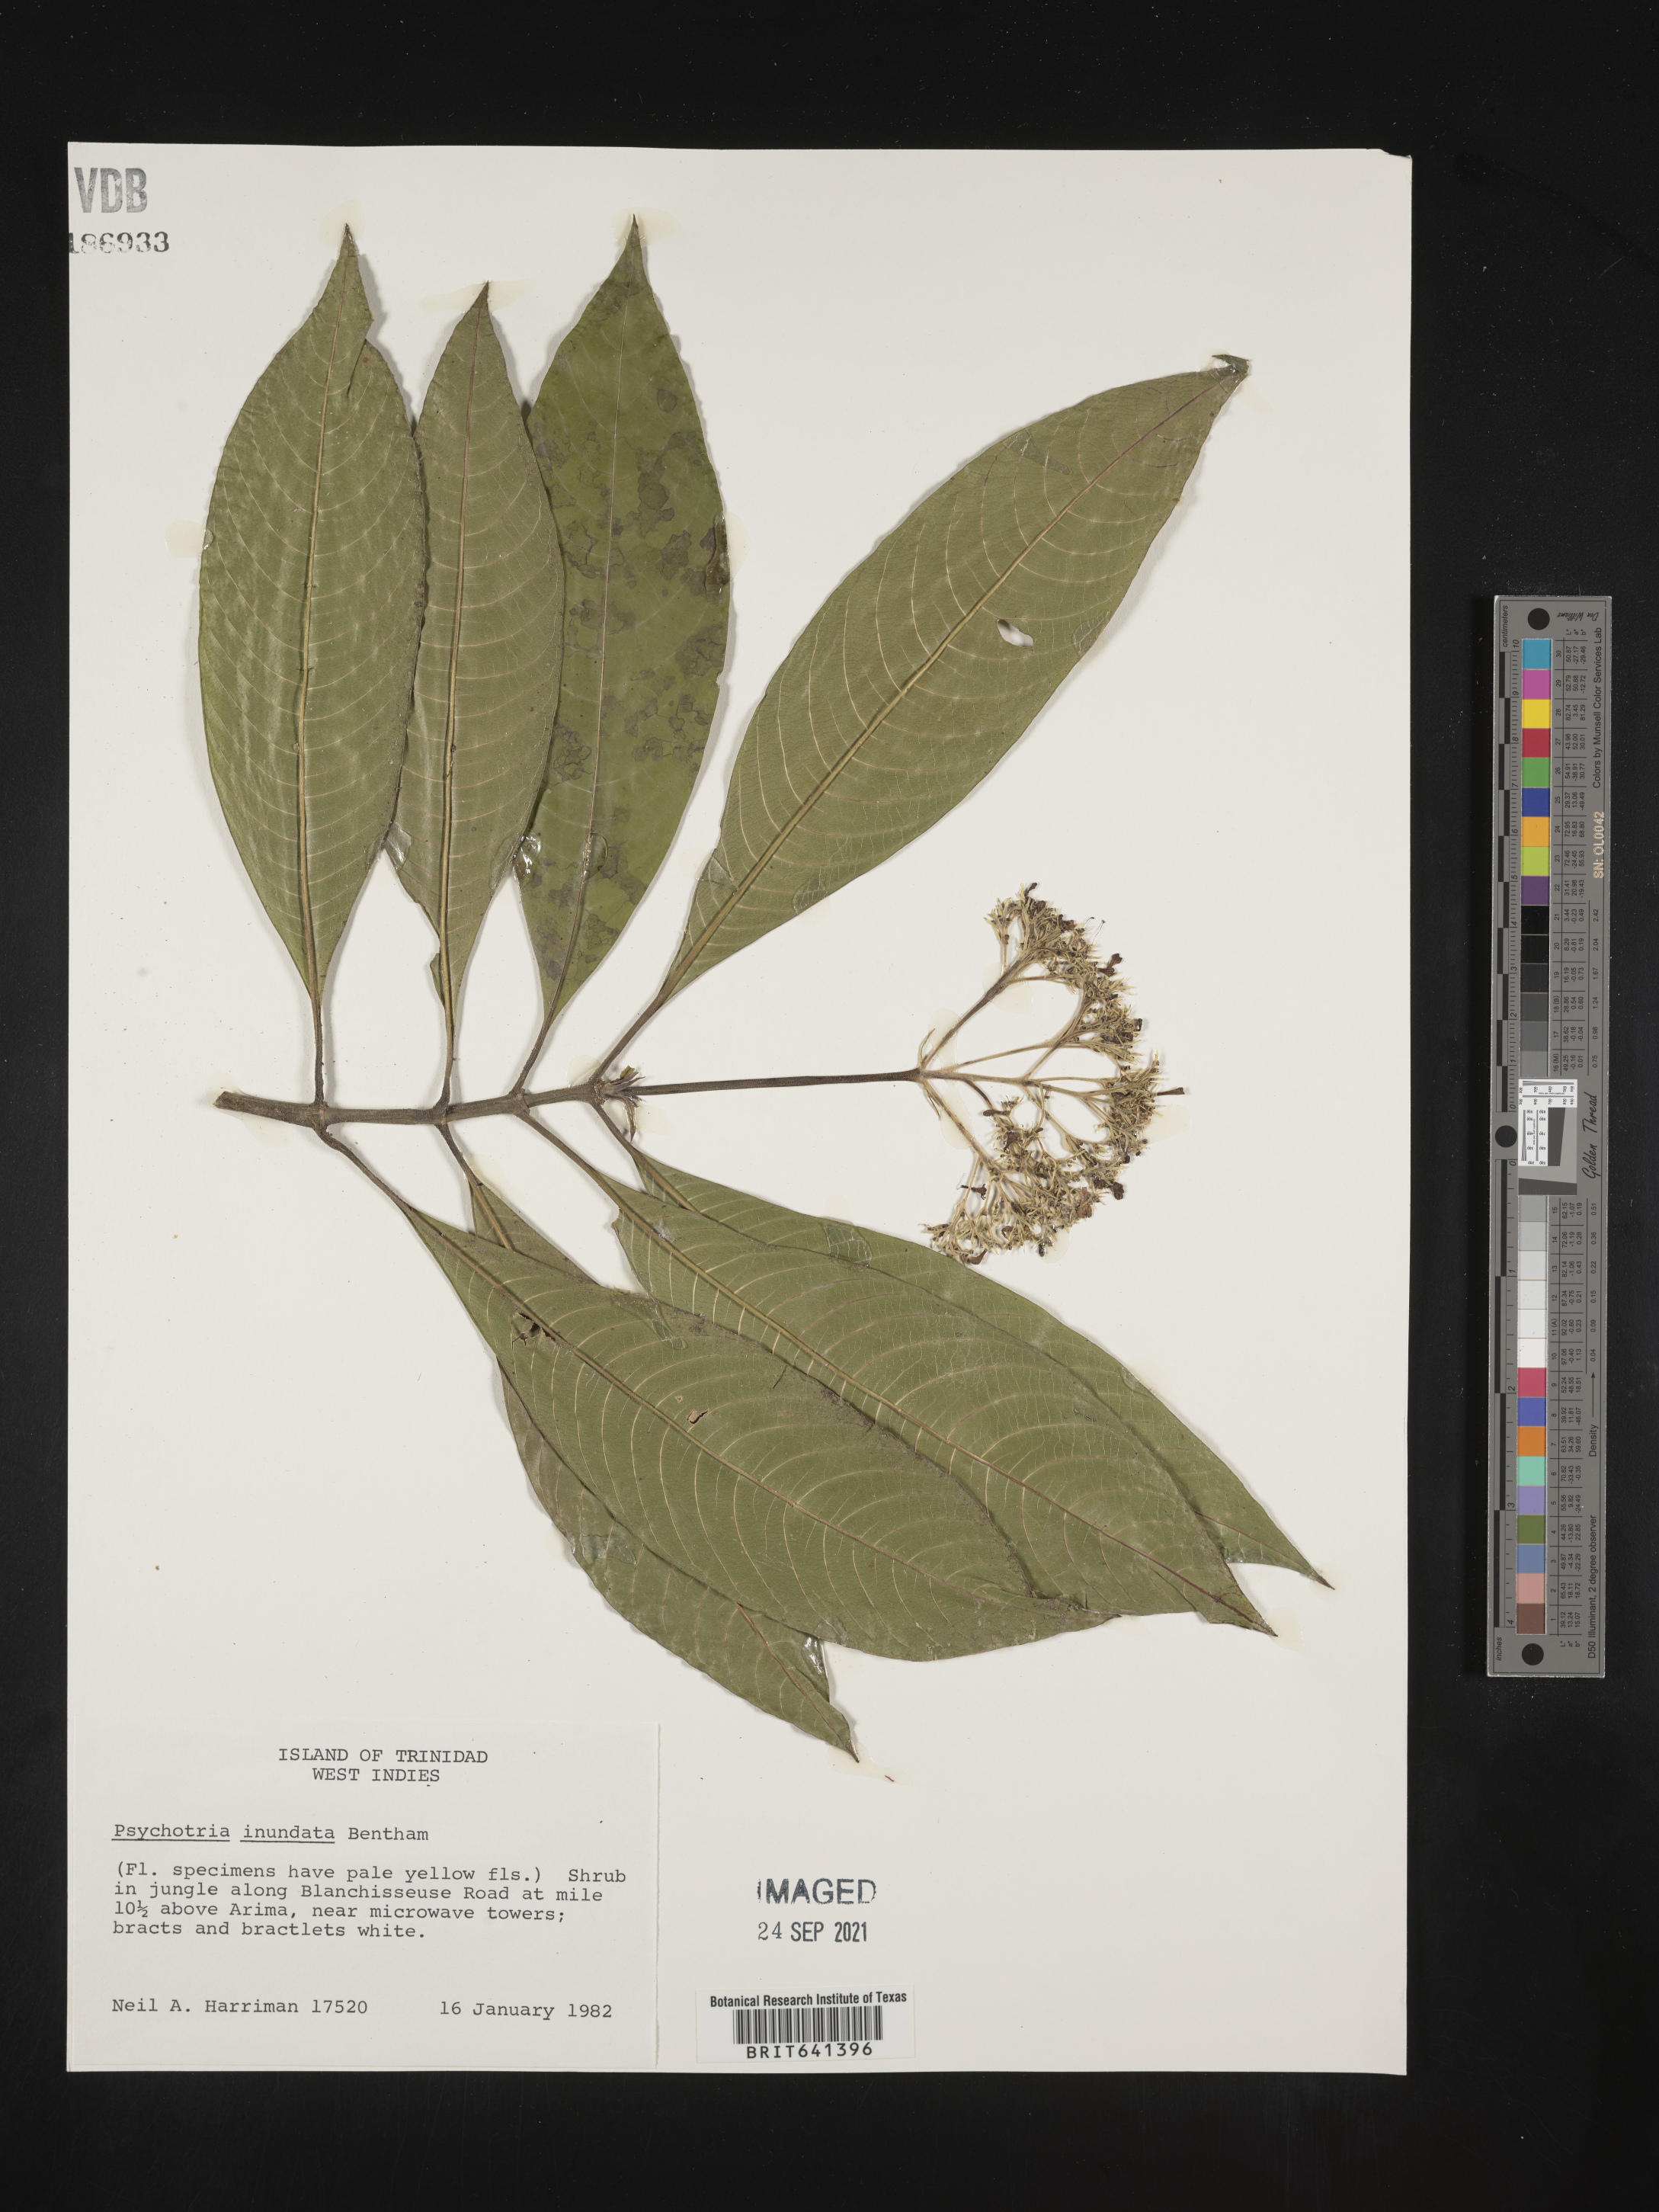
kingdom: Plantae
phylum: Tracheophyta
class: Magnoliopsida
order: Gentianales
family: Rubiaceae
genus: Psychotria
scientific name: Psychotria
